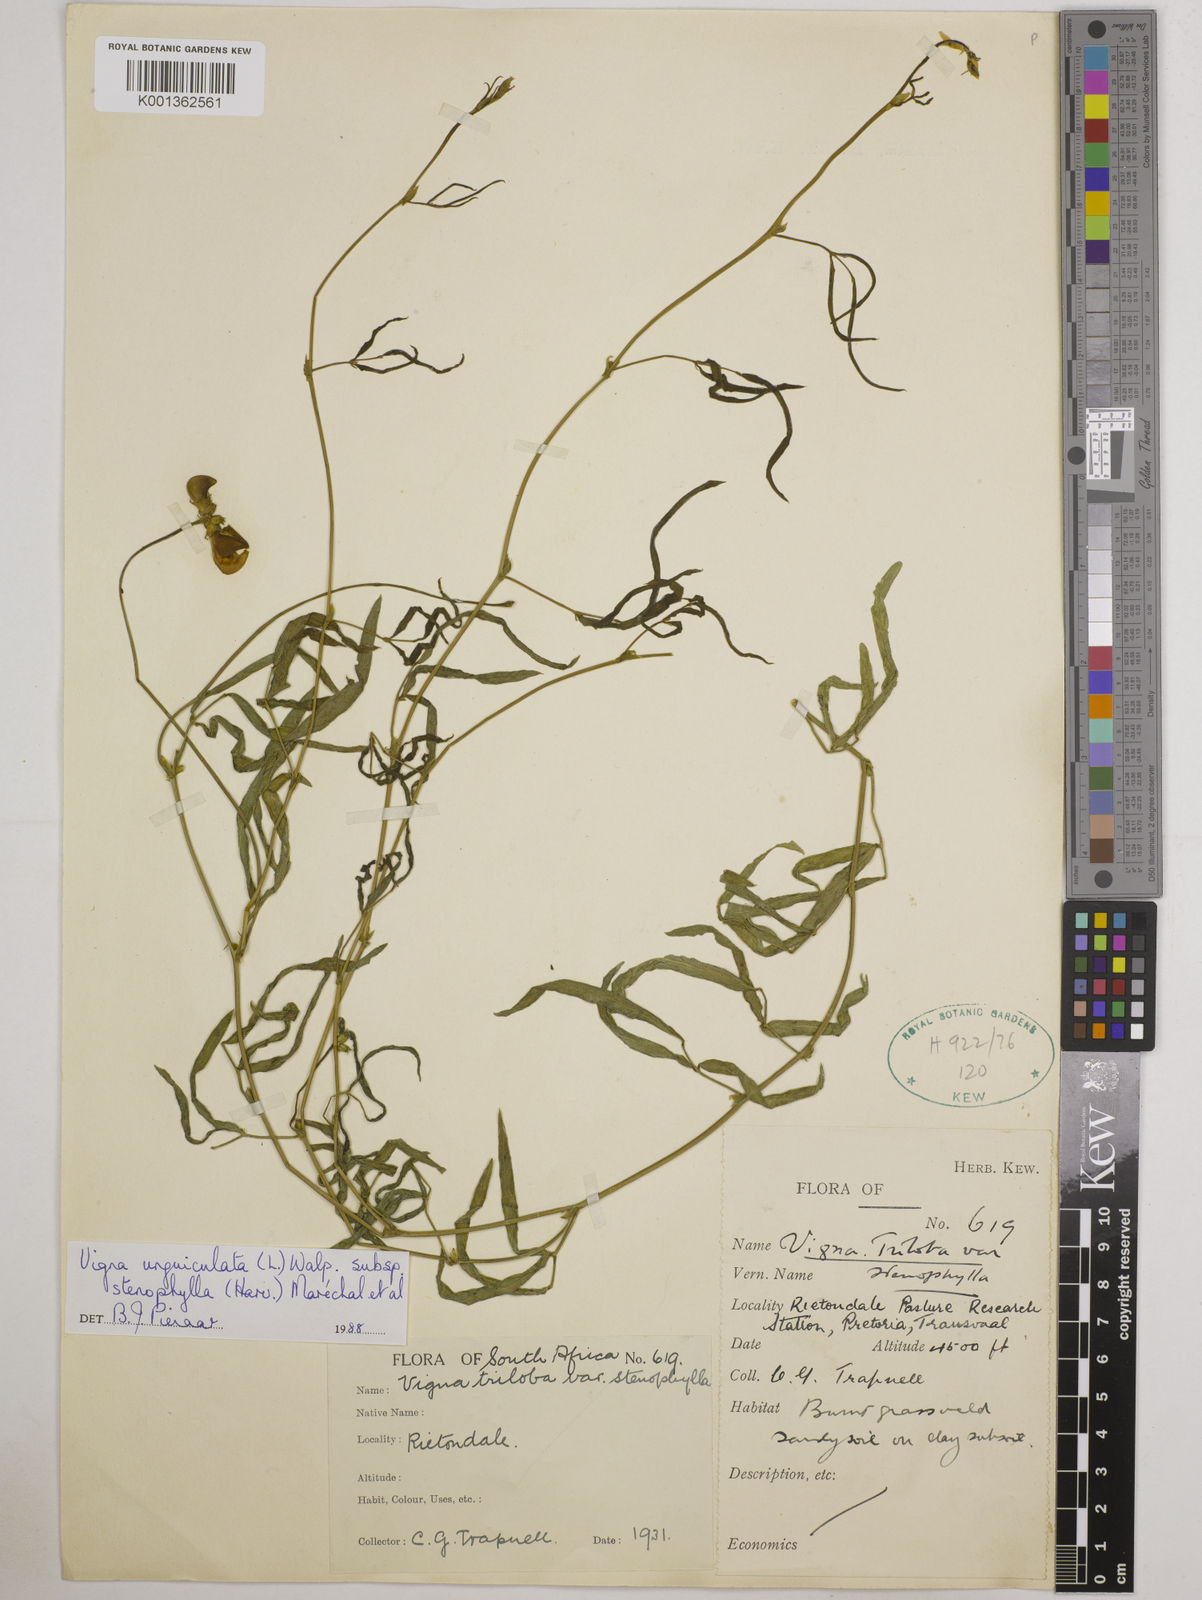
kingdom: Plantae
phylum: Tracheophyta
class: Magnoliopsida
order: Fabales
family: Fabaceae
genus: Vigna
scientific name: Vigna
